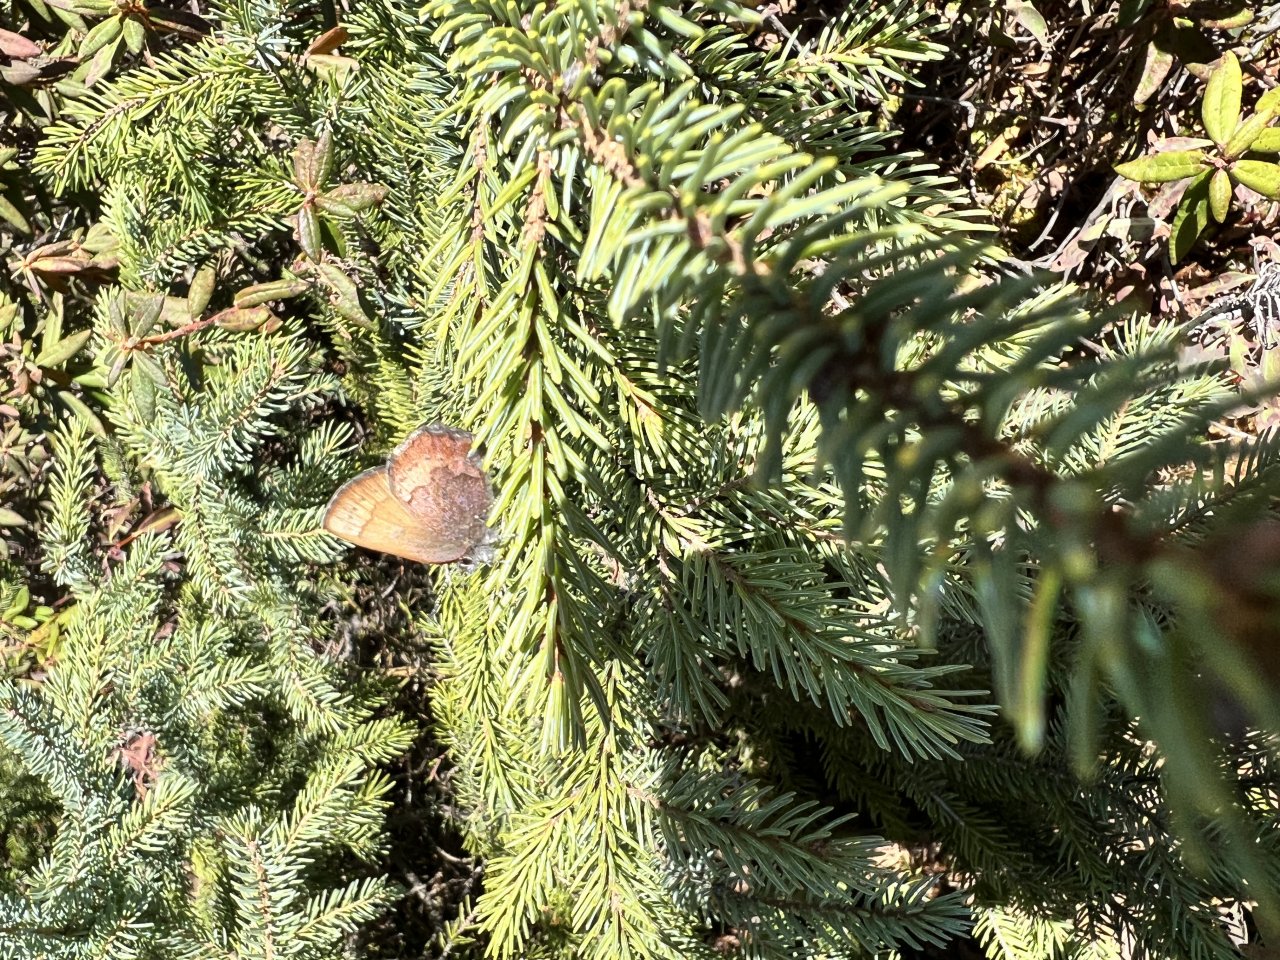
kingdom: Animalia
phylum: Arthropoda
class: Insecta
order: Lepidoptera
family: Lycaenidae
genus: Incisalia
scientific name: Incisalia irioides
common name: Brown Elfin
